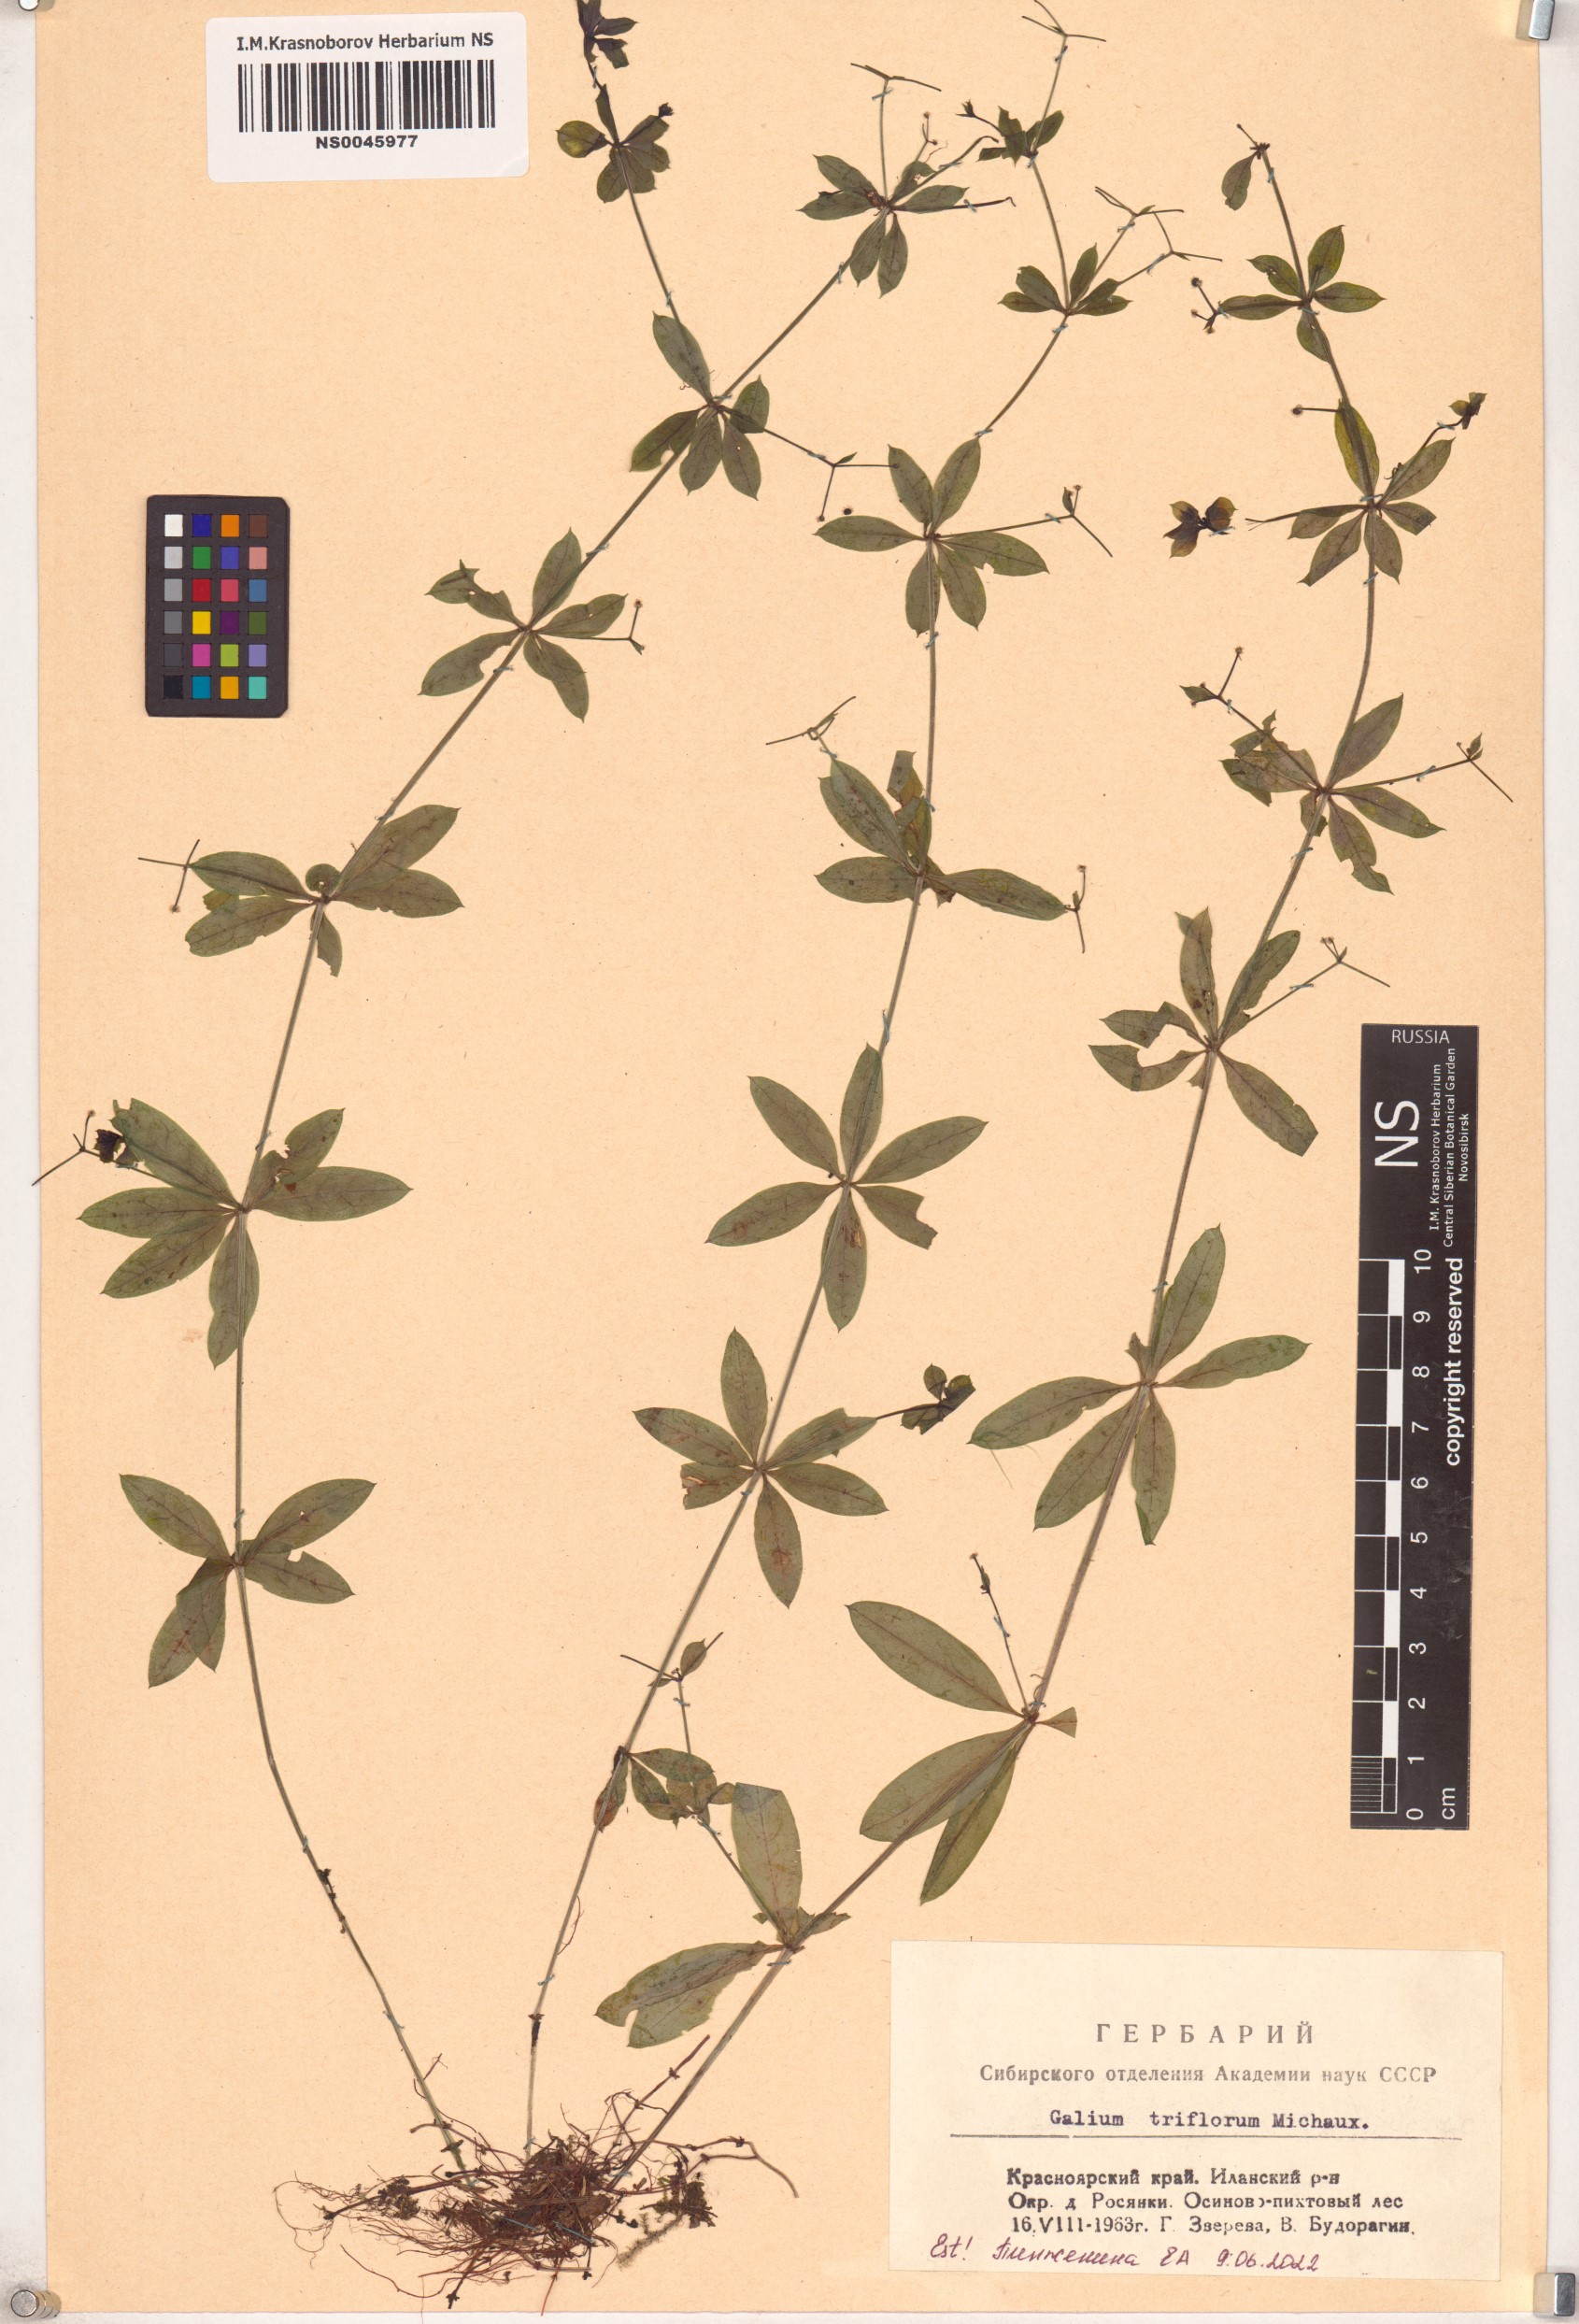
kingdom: Plantae
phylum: Tracheophyta
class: Magnoliopsida
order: Gentianales
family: Rubiaceae
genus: Galium
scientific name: Galium triflorum
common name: Fragrant bedstraw
